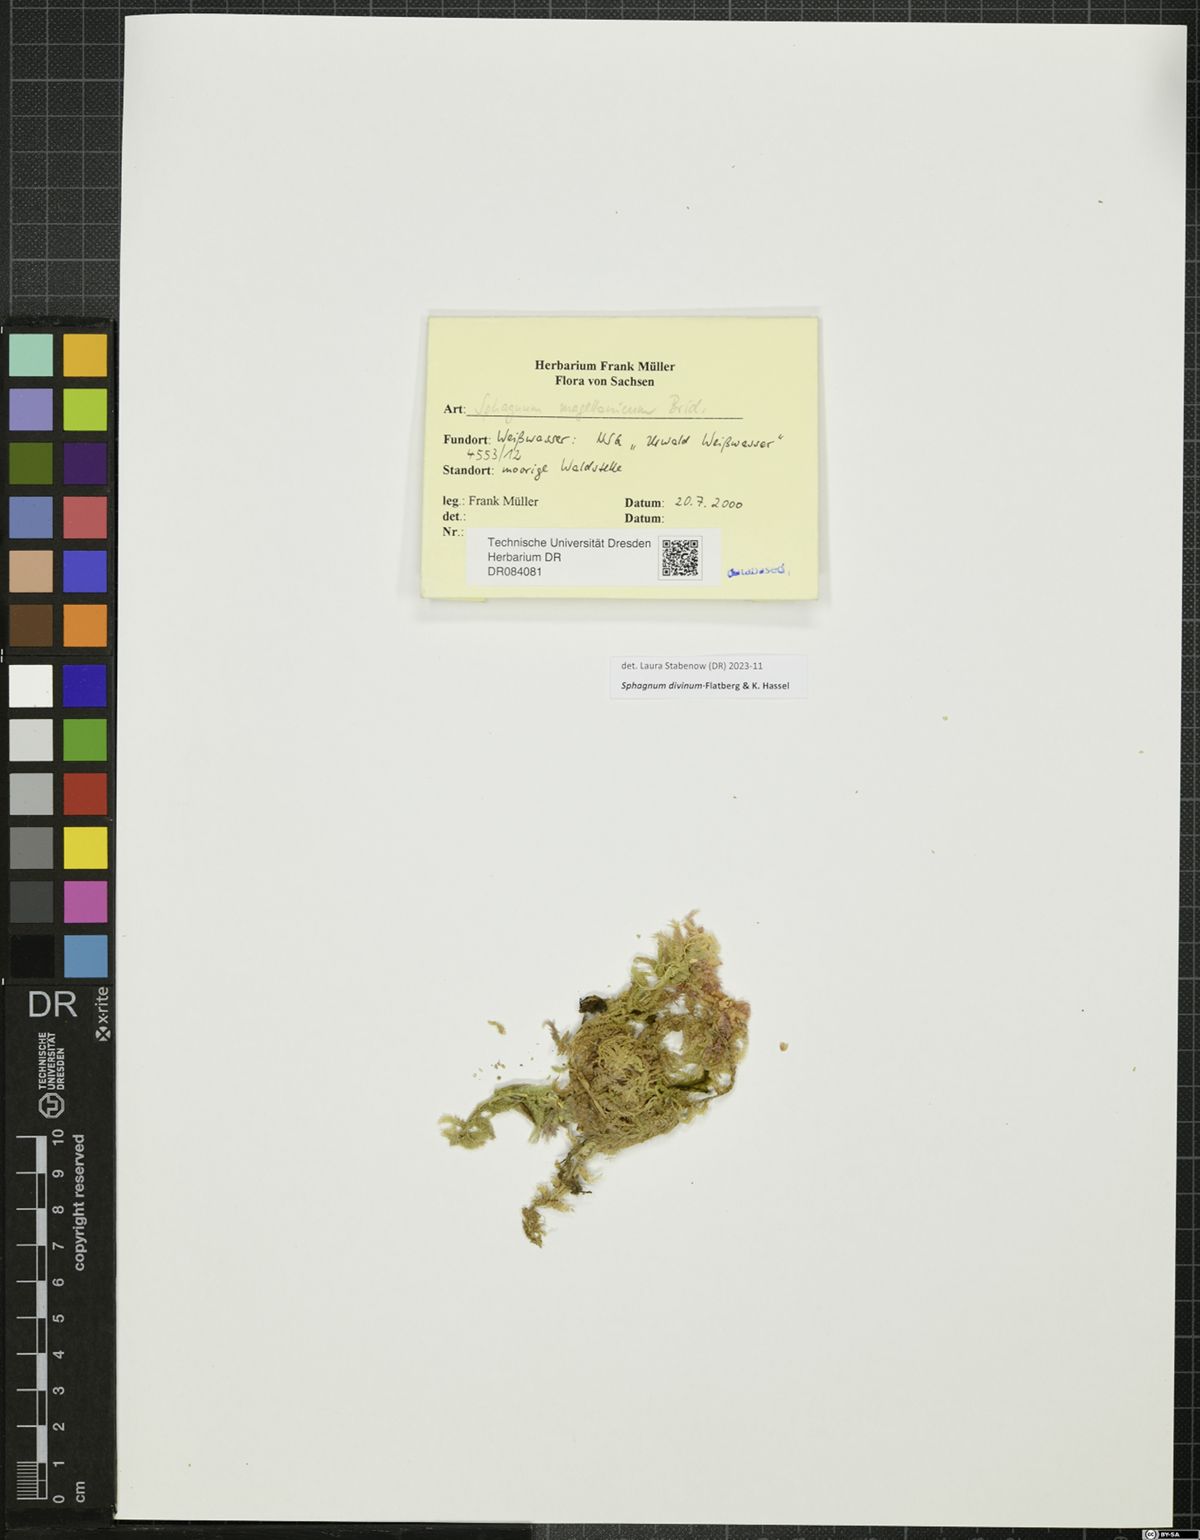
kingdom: Plantae
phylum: Bryophyta
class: Sphagnopsida
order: Sphagnales
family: Sphagnaceae
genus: Sphagnum
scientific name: Sphagnum divinum
